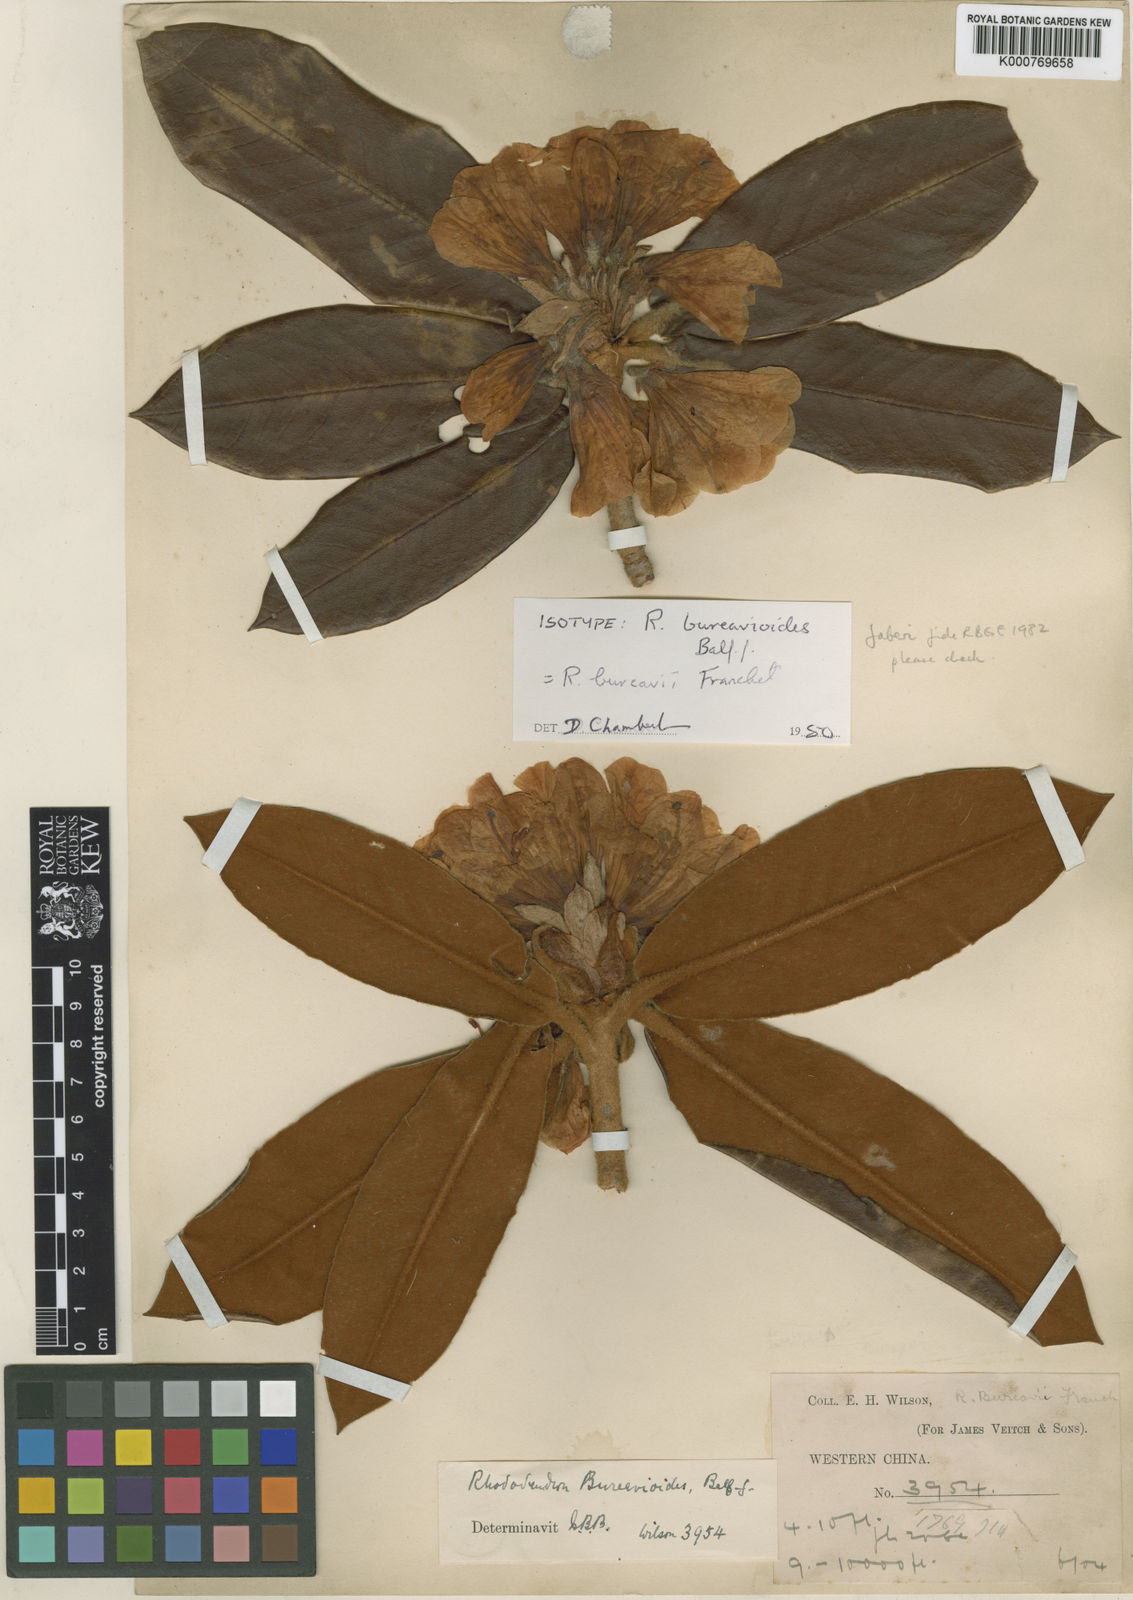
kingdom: Plantae
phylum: Tracheophyta
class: Magnoliopsida
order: Ericales
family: Ericaceae
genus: Rhododendron
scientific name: Rhododendron faberi
